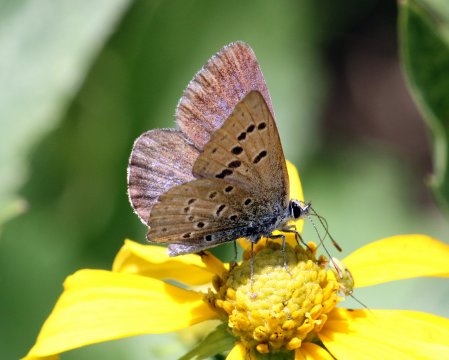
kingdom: Animalia
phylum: Arthropoda
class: Insecta
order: Lepidoptera
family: Lycaenidae
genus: Icaricia
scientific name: Icaricia icarioides
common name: Boisduval's Blue
